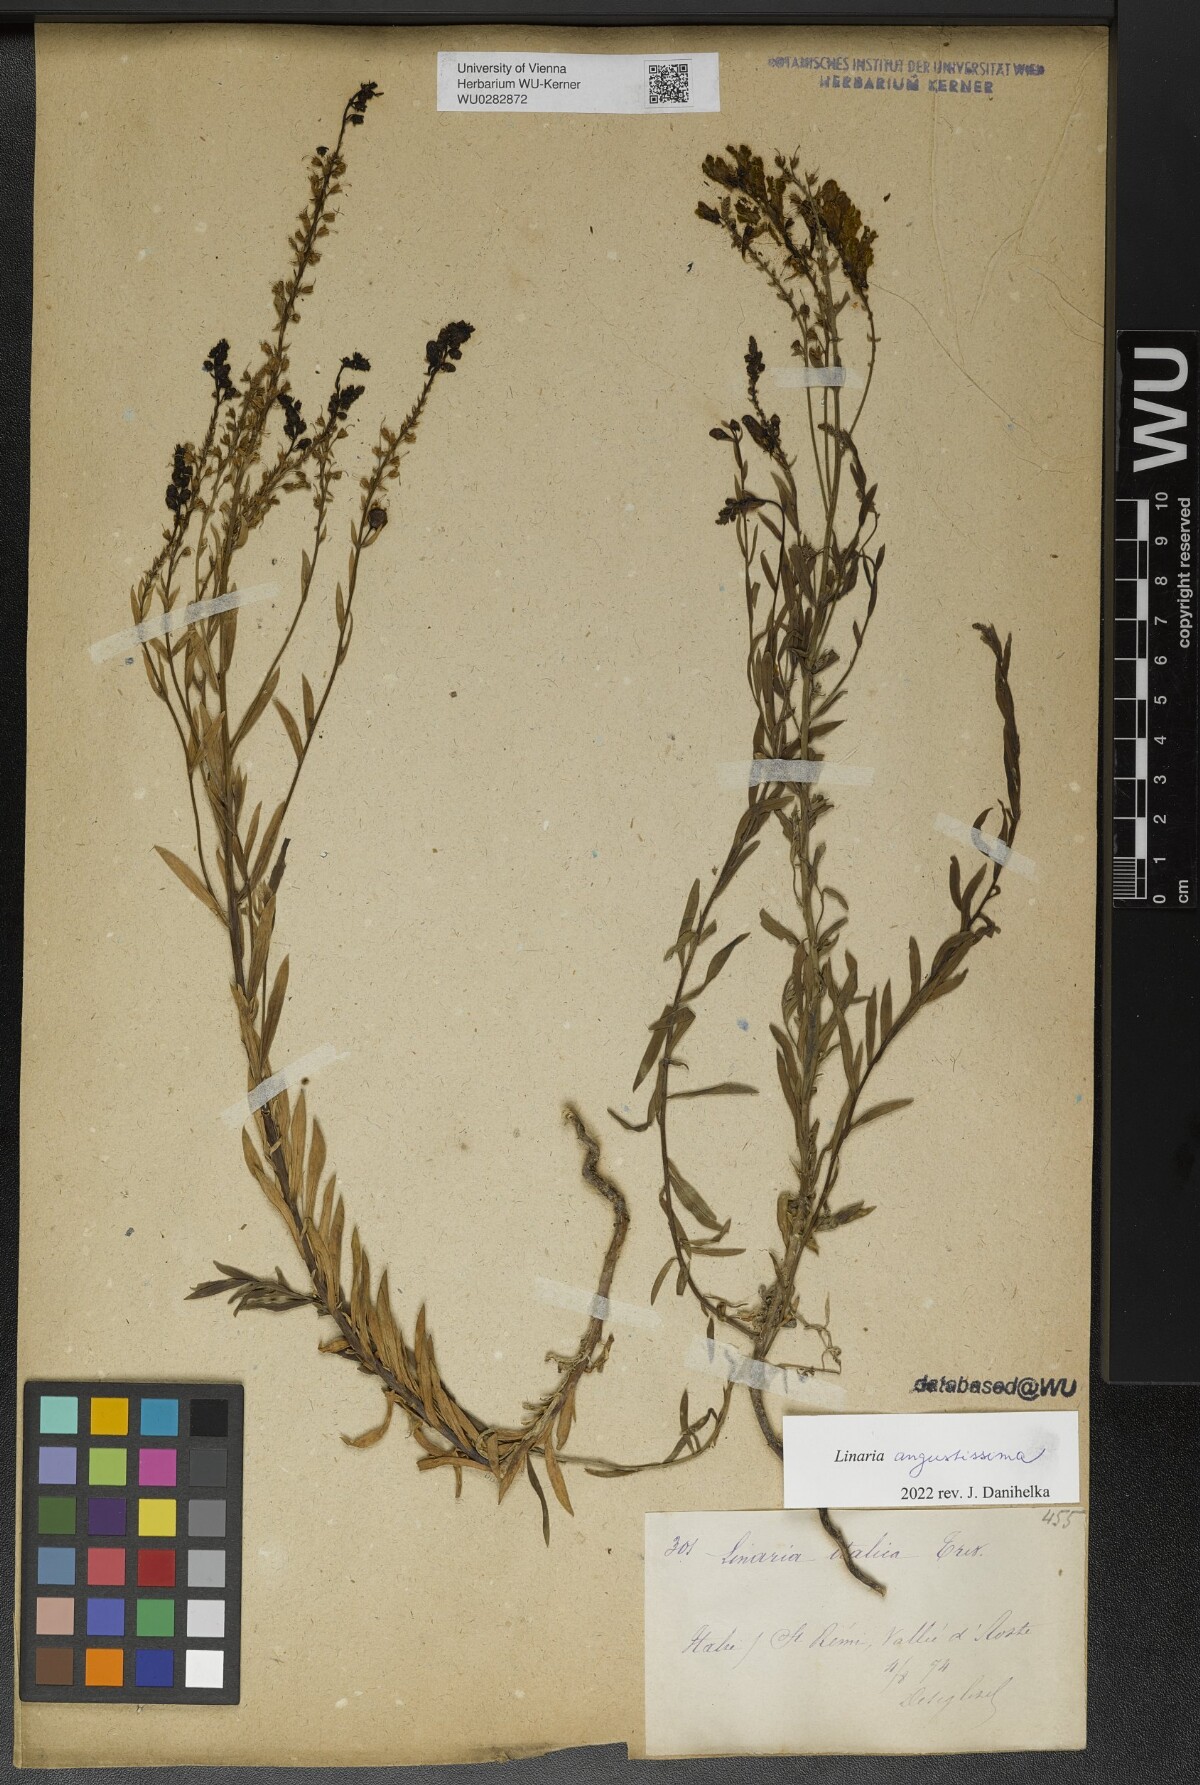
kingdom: Plantae
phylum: Tracheophyta
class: Magnoliopsida
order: Lamiales
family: Plantaginaceae
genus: Linaria
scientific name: Linaria angustissima
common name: Italian toadflax
